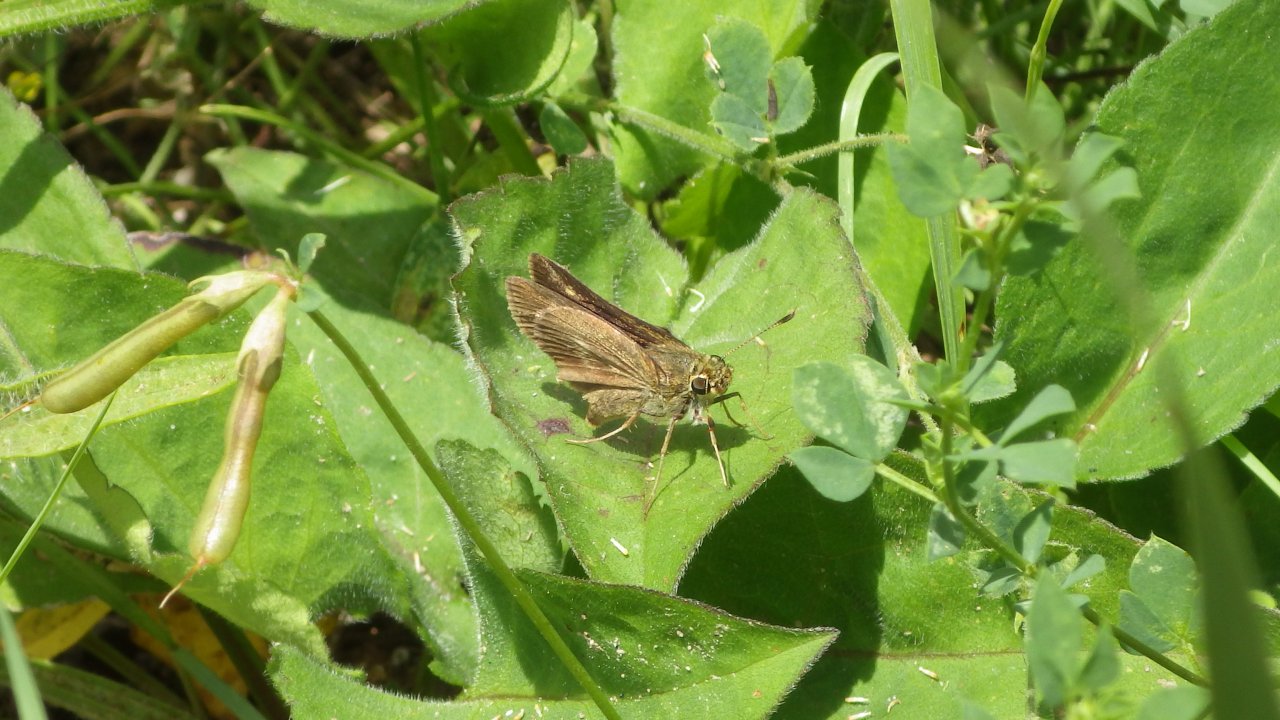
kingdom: Animalia
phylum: Arthropoda
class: Insecta
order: Lepidoptera
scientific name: Lepidoptera
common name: Butterflies
